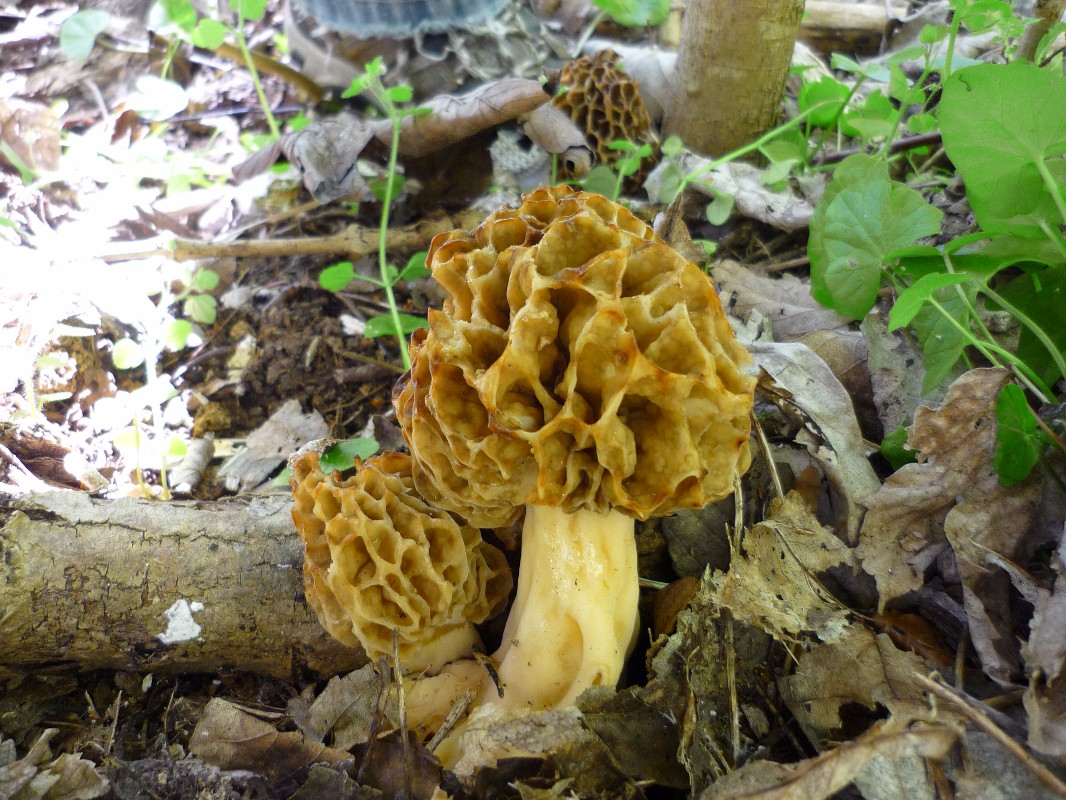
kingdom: Fungi
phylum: Ascomycota
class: Pezizomycetes
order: Pezizales
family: Morchellaceae
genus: Morchella
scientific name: Morchella esculenta
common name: spiselig morkel
